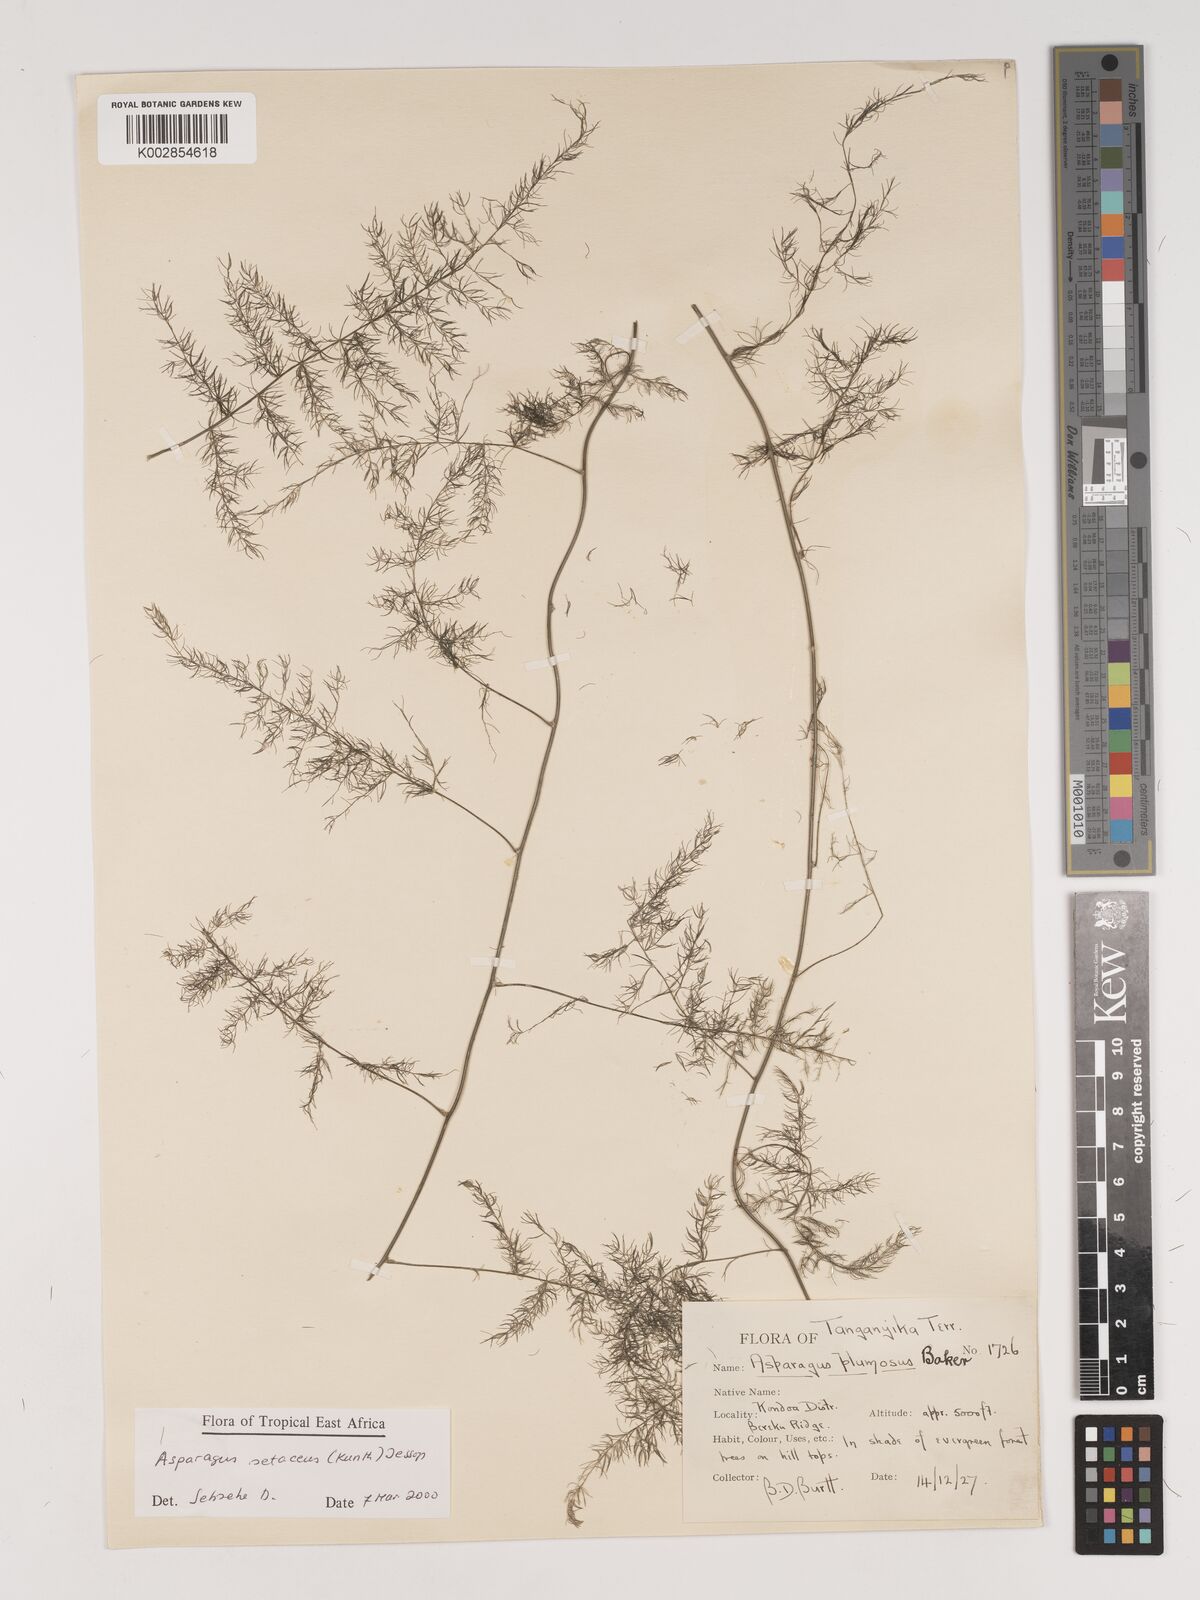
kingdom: Plantae
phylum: Tracheophyta
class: Liliopsida
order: Asparagales
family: Asparagaceae
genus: Asparagus
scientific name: Asparagus setaceus
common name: Common asparagus fern
